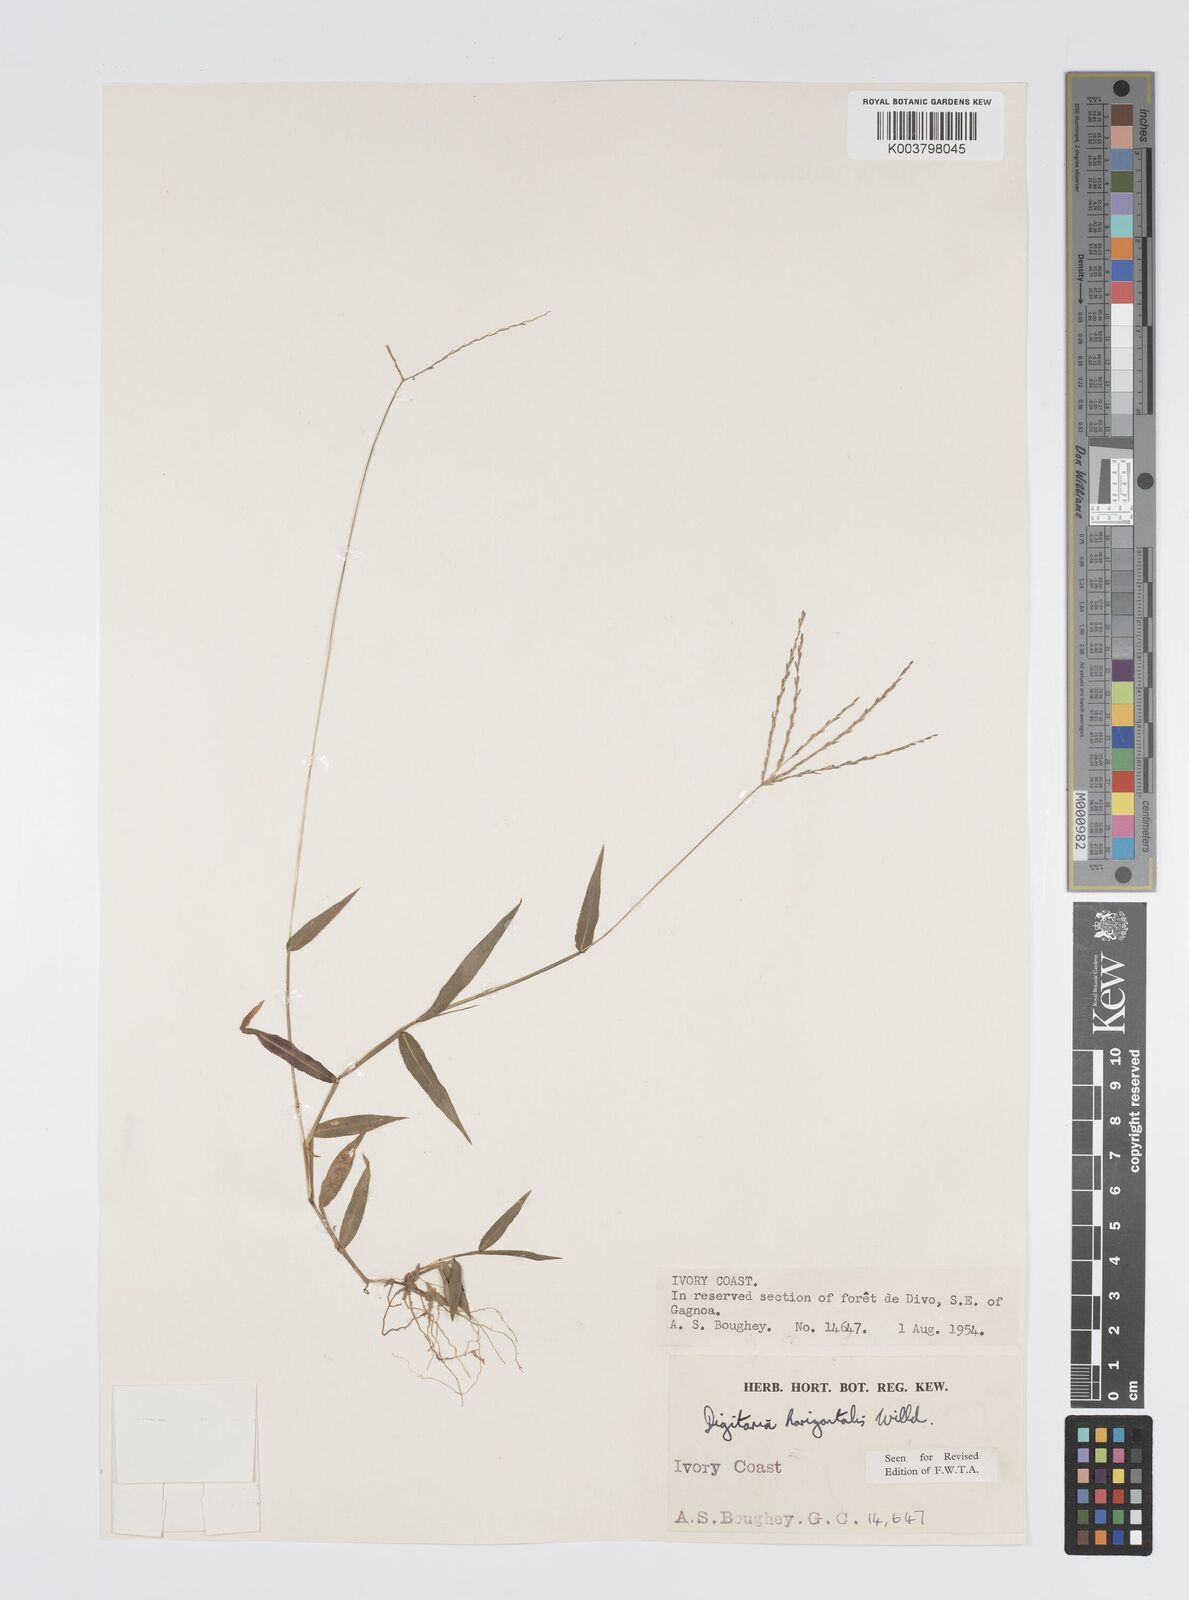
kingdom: Plantae
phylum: Tracheophyta
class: Liliopsida
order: Poales
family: Poaceae
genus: Digitaria
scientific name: Digitaria horizontalis
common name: Jamaican crabgrass
